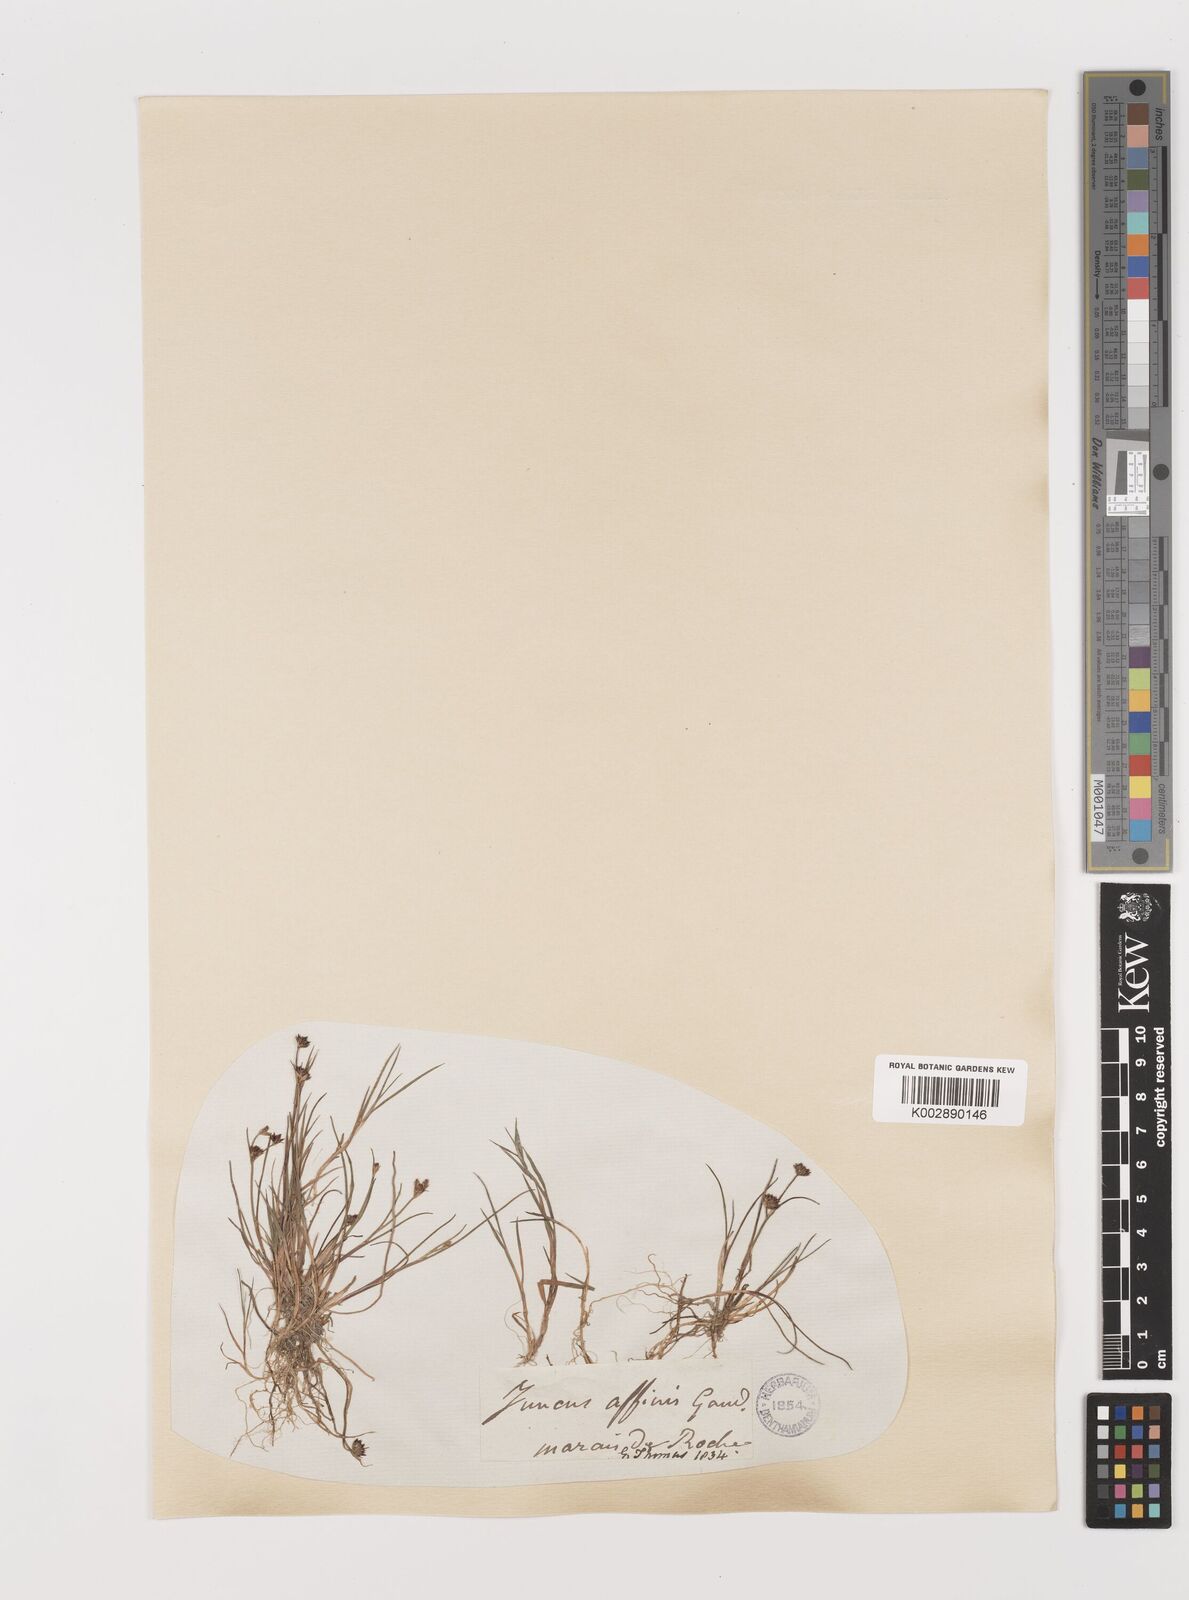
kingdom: Plantae
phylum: Tracheophyta
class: Liliopsida
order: Poales
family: Juncaceae
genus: Juncus
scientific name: Juncus articulatus
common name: Jointed rush
